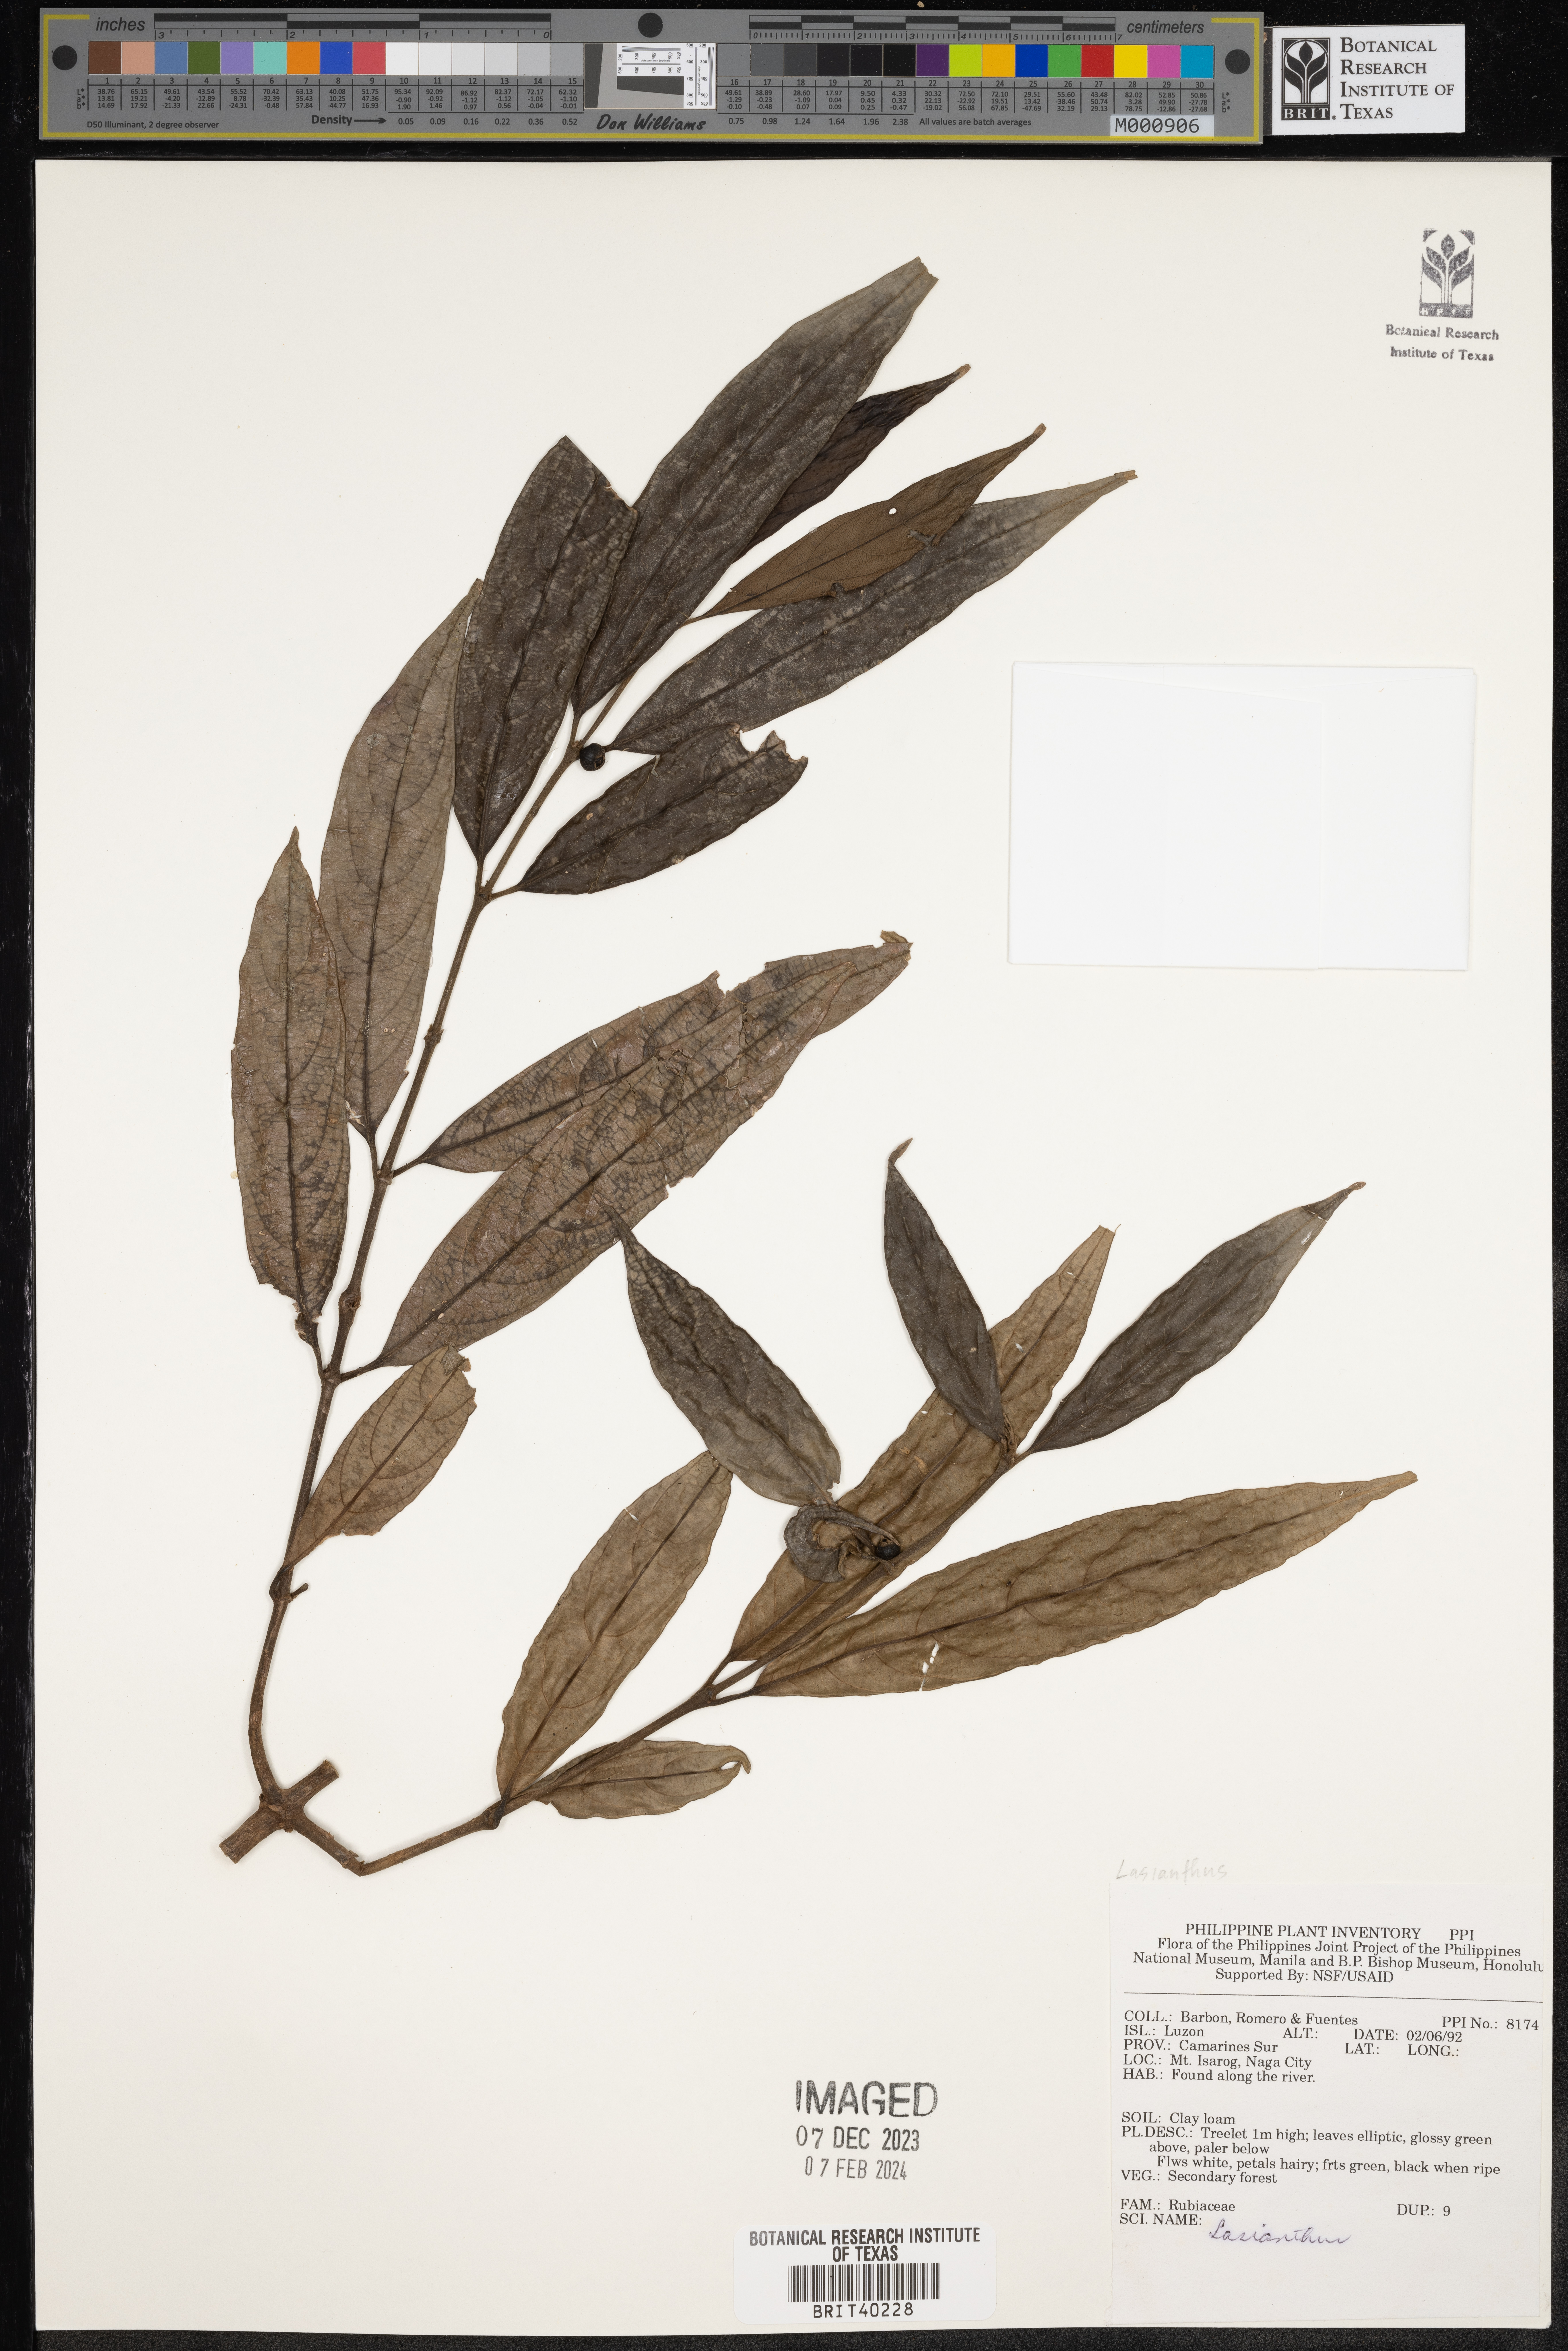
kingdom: Plantae
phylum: Tracheophyta
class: Magnoliopsida
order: Gentianales
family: Rubiaceae
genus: Lasianthus
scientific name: Lasianthus
